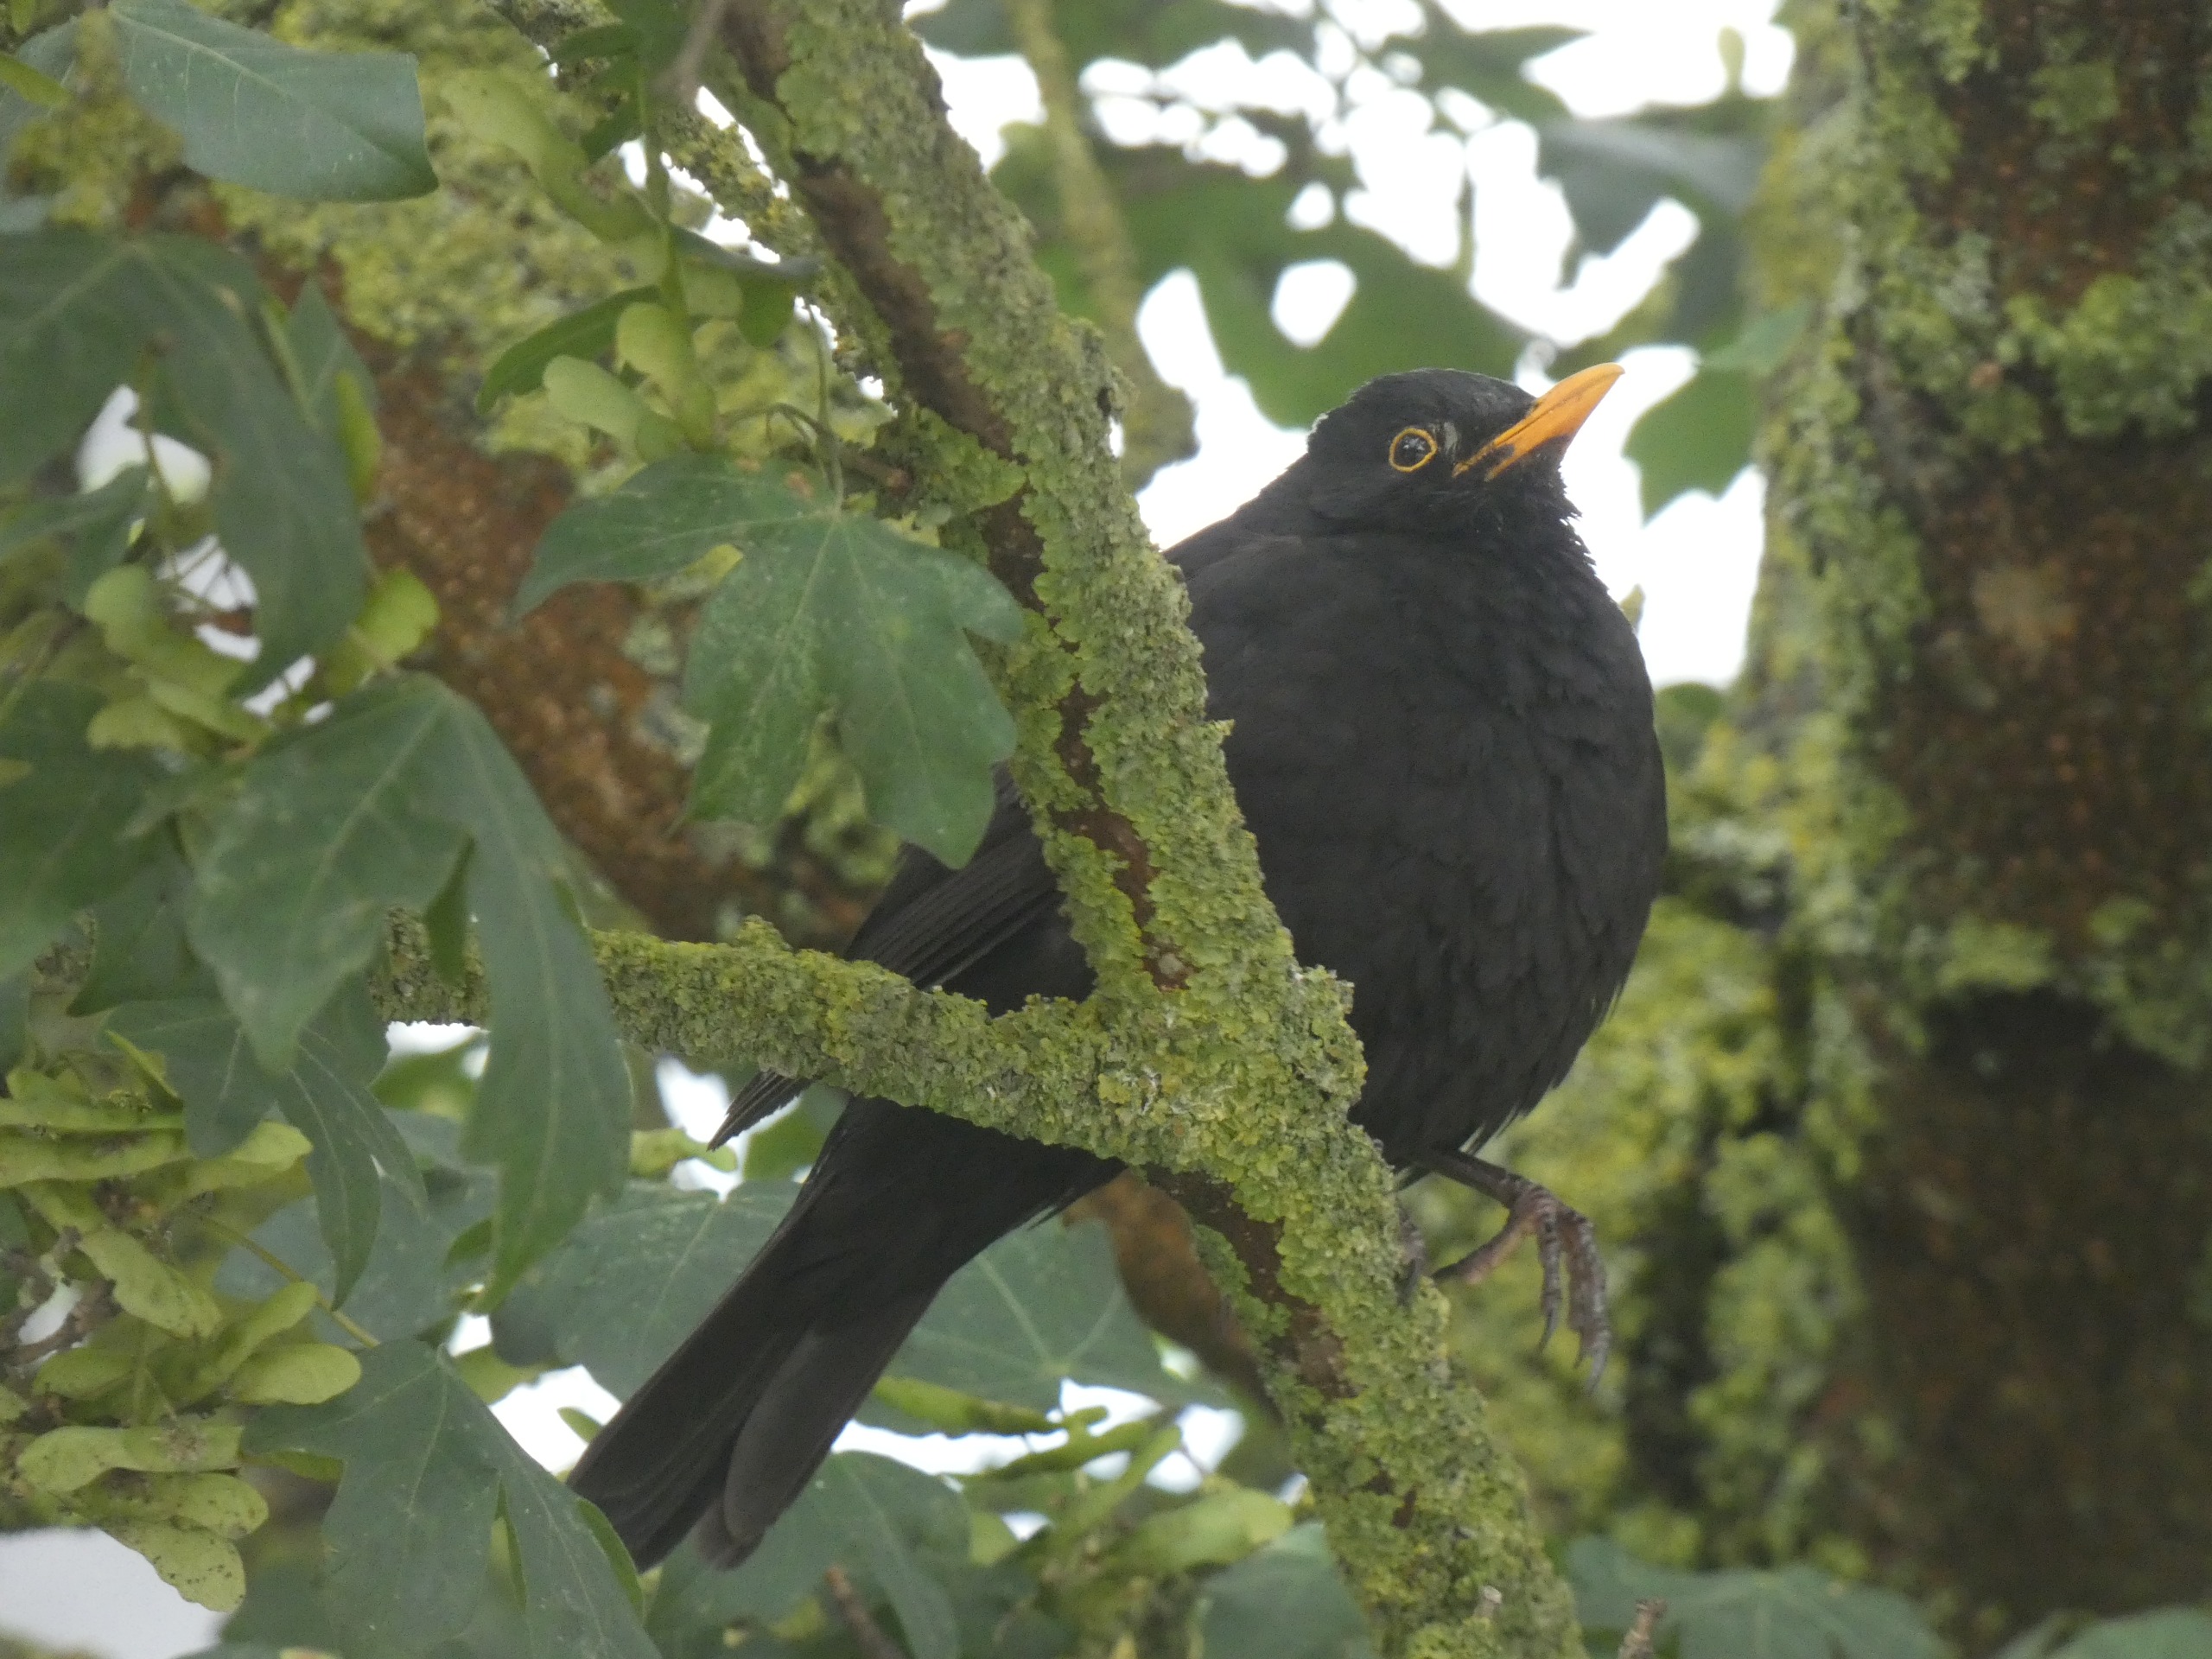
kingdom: Animalia
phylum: Chordata
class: Aves
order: Passeriformes
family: Turdidae
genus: Turdus
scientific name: Turdus merula
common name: Solsort
